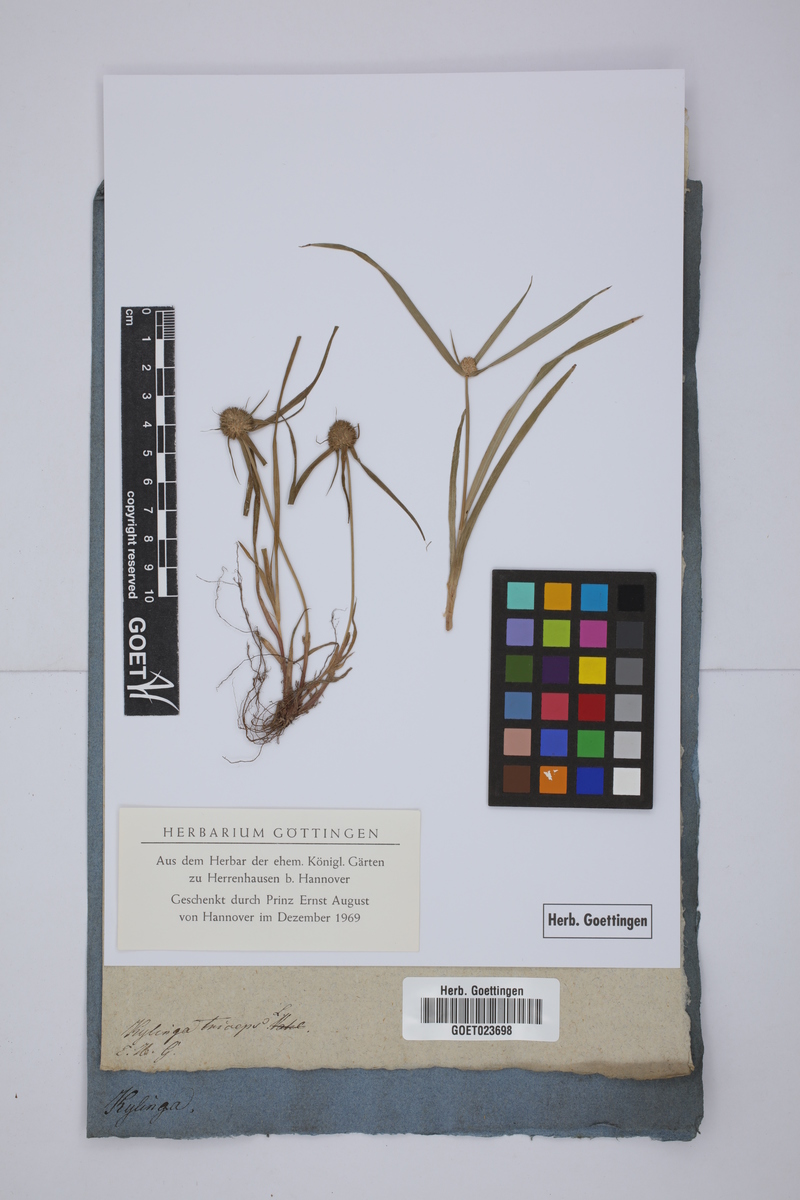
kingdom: Plantae
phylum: Tracheophyta
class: Liliopsida
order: Poales
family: Cyperaceae
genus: Cyperus
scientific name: Cyperus sesquiflorus
